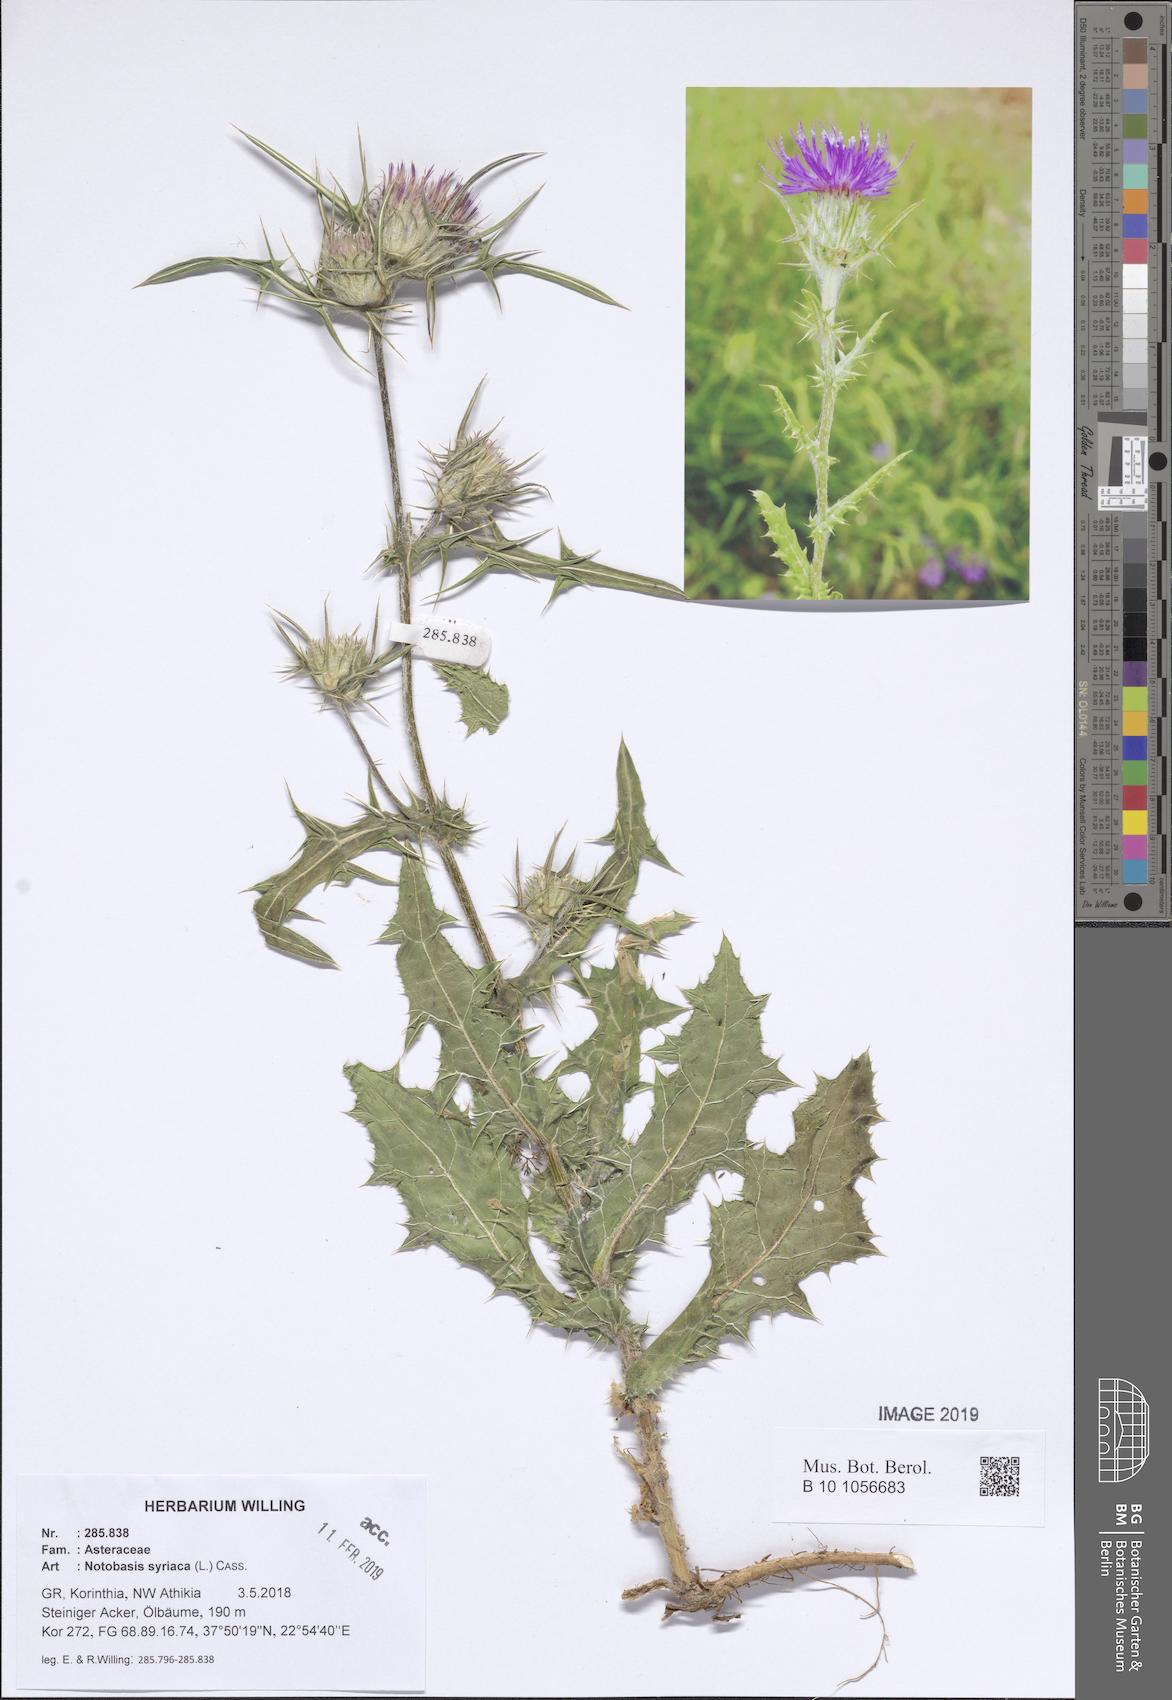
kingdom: Plantae
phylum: Tracheophyta
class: Magnoliopsida
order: Asterales
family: Asteraceae
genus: Notobasis
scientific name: Notobasis syriaca
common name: Syrian thistle
